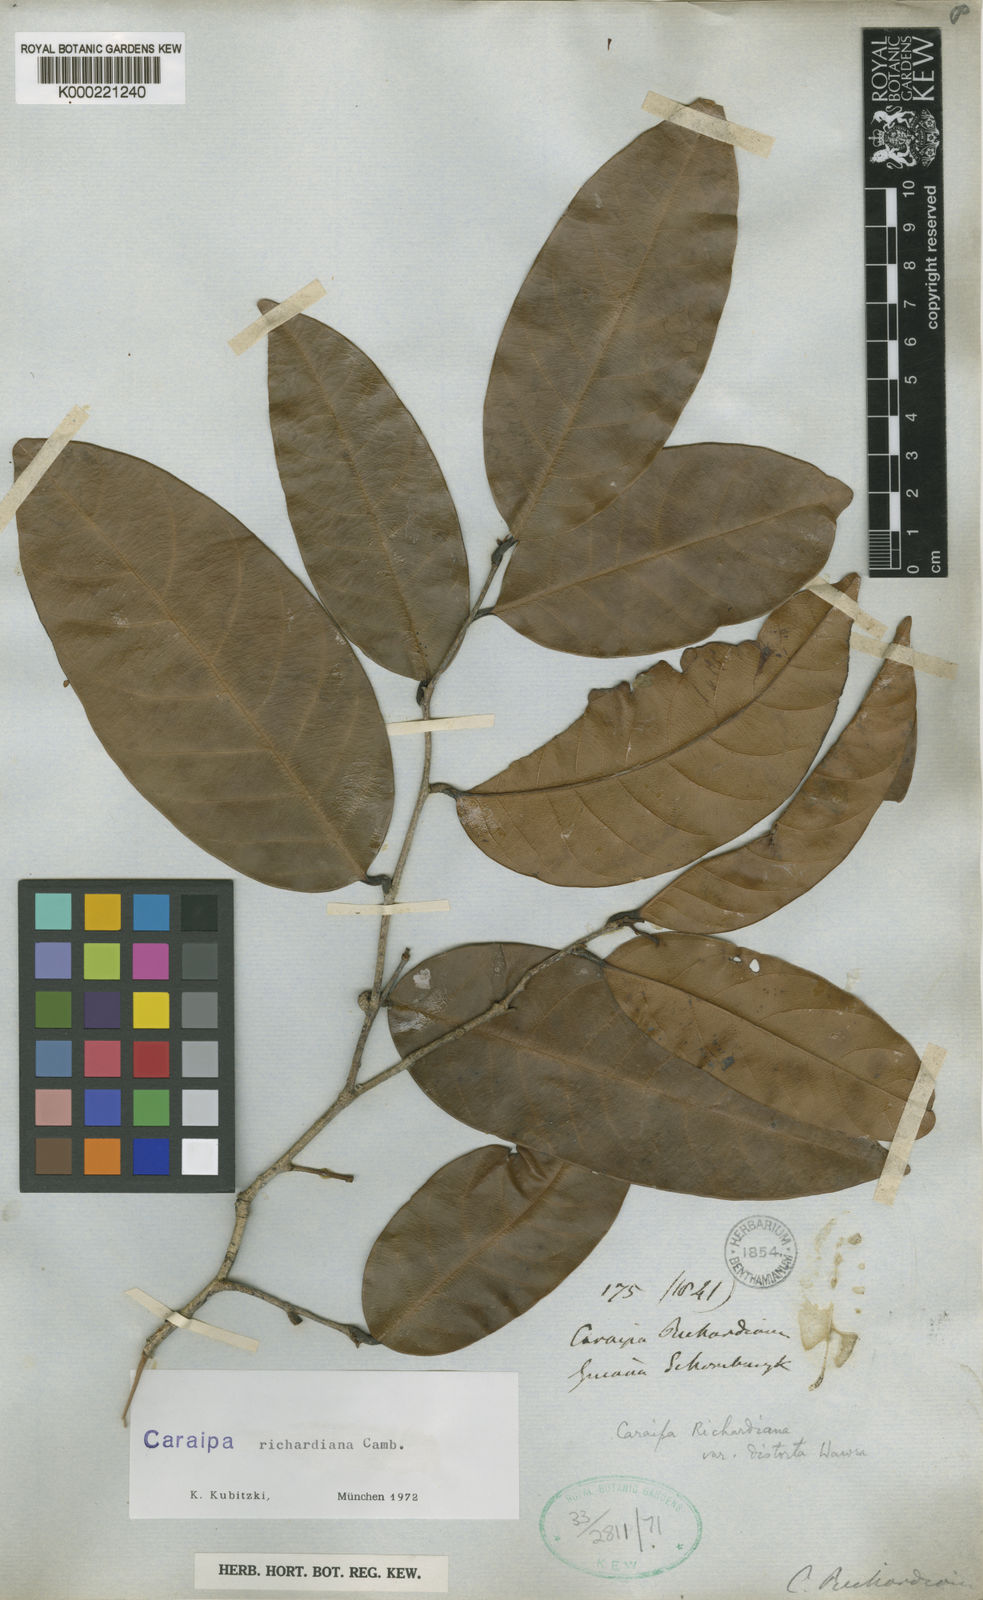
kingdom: Plantae
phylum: Tracheophyta
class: Magnoliopsida
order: Malpighiales
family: Calophyllaceae
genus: Caraipa
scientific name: Caraipa richardiana
